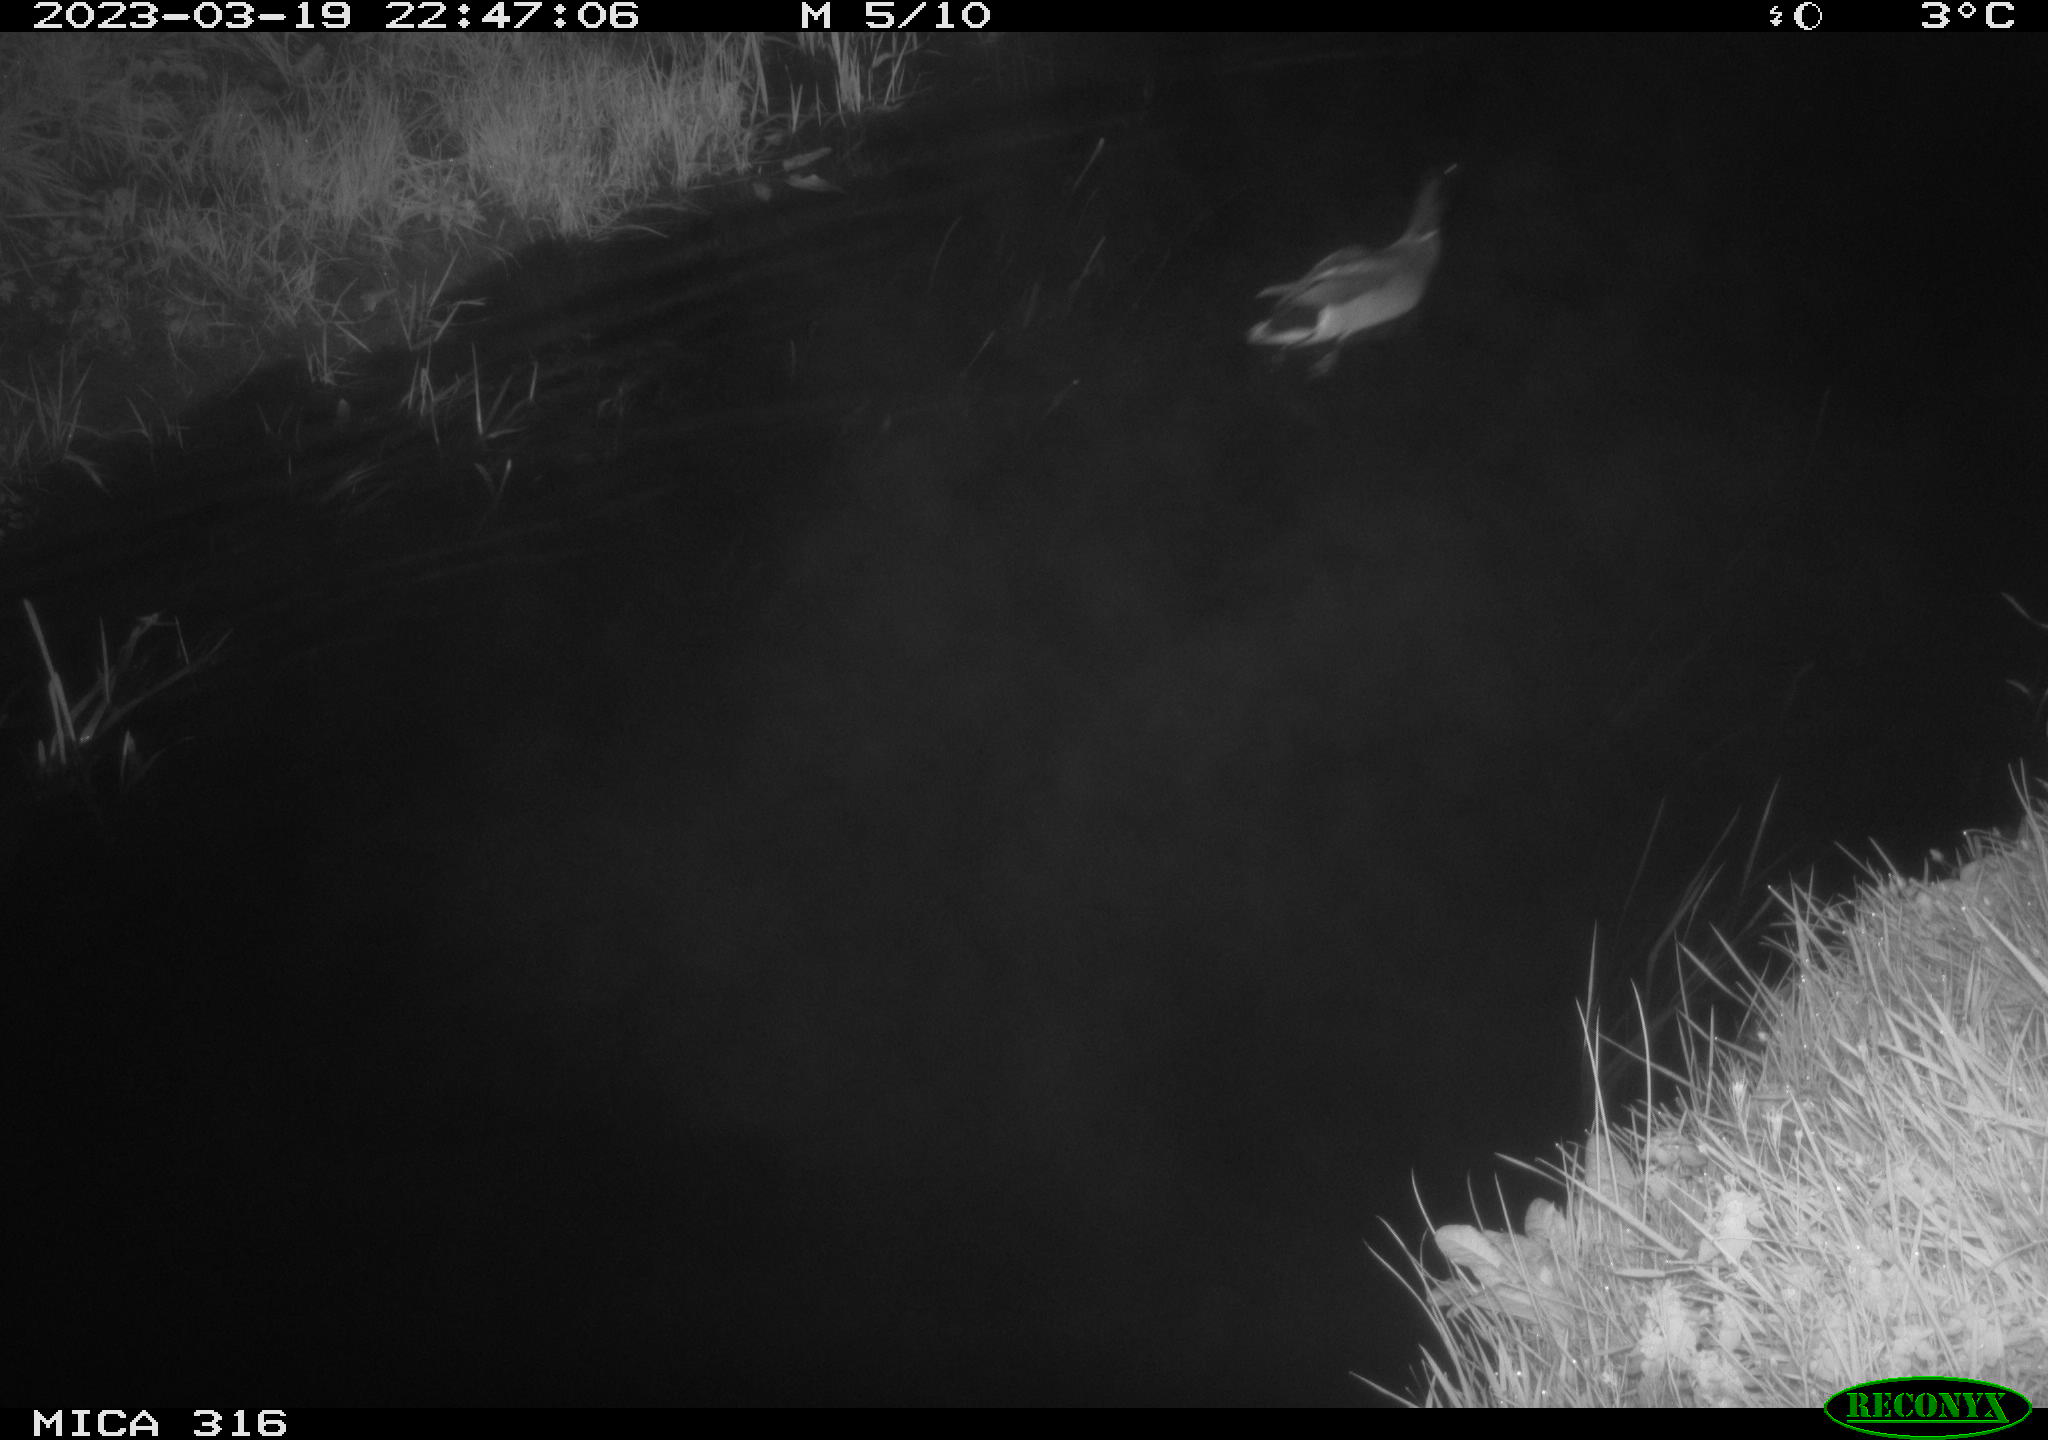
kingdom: Animalia
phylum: Chordata
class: Aves
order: Anseriformes
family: Anatidae
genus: Anas
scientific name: Anas
